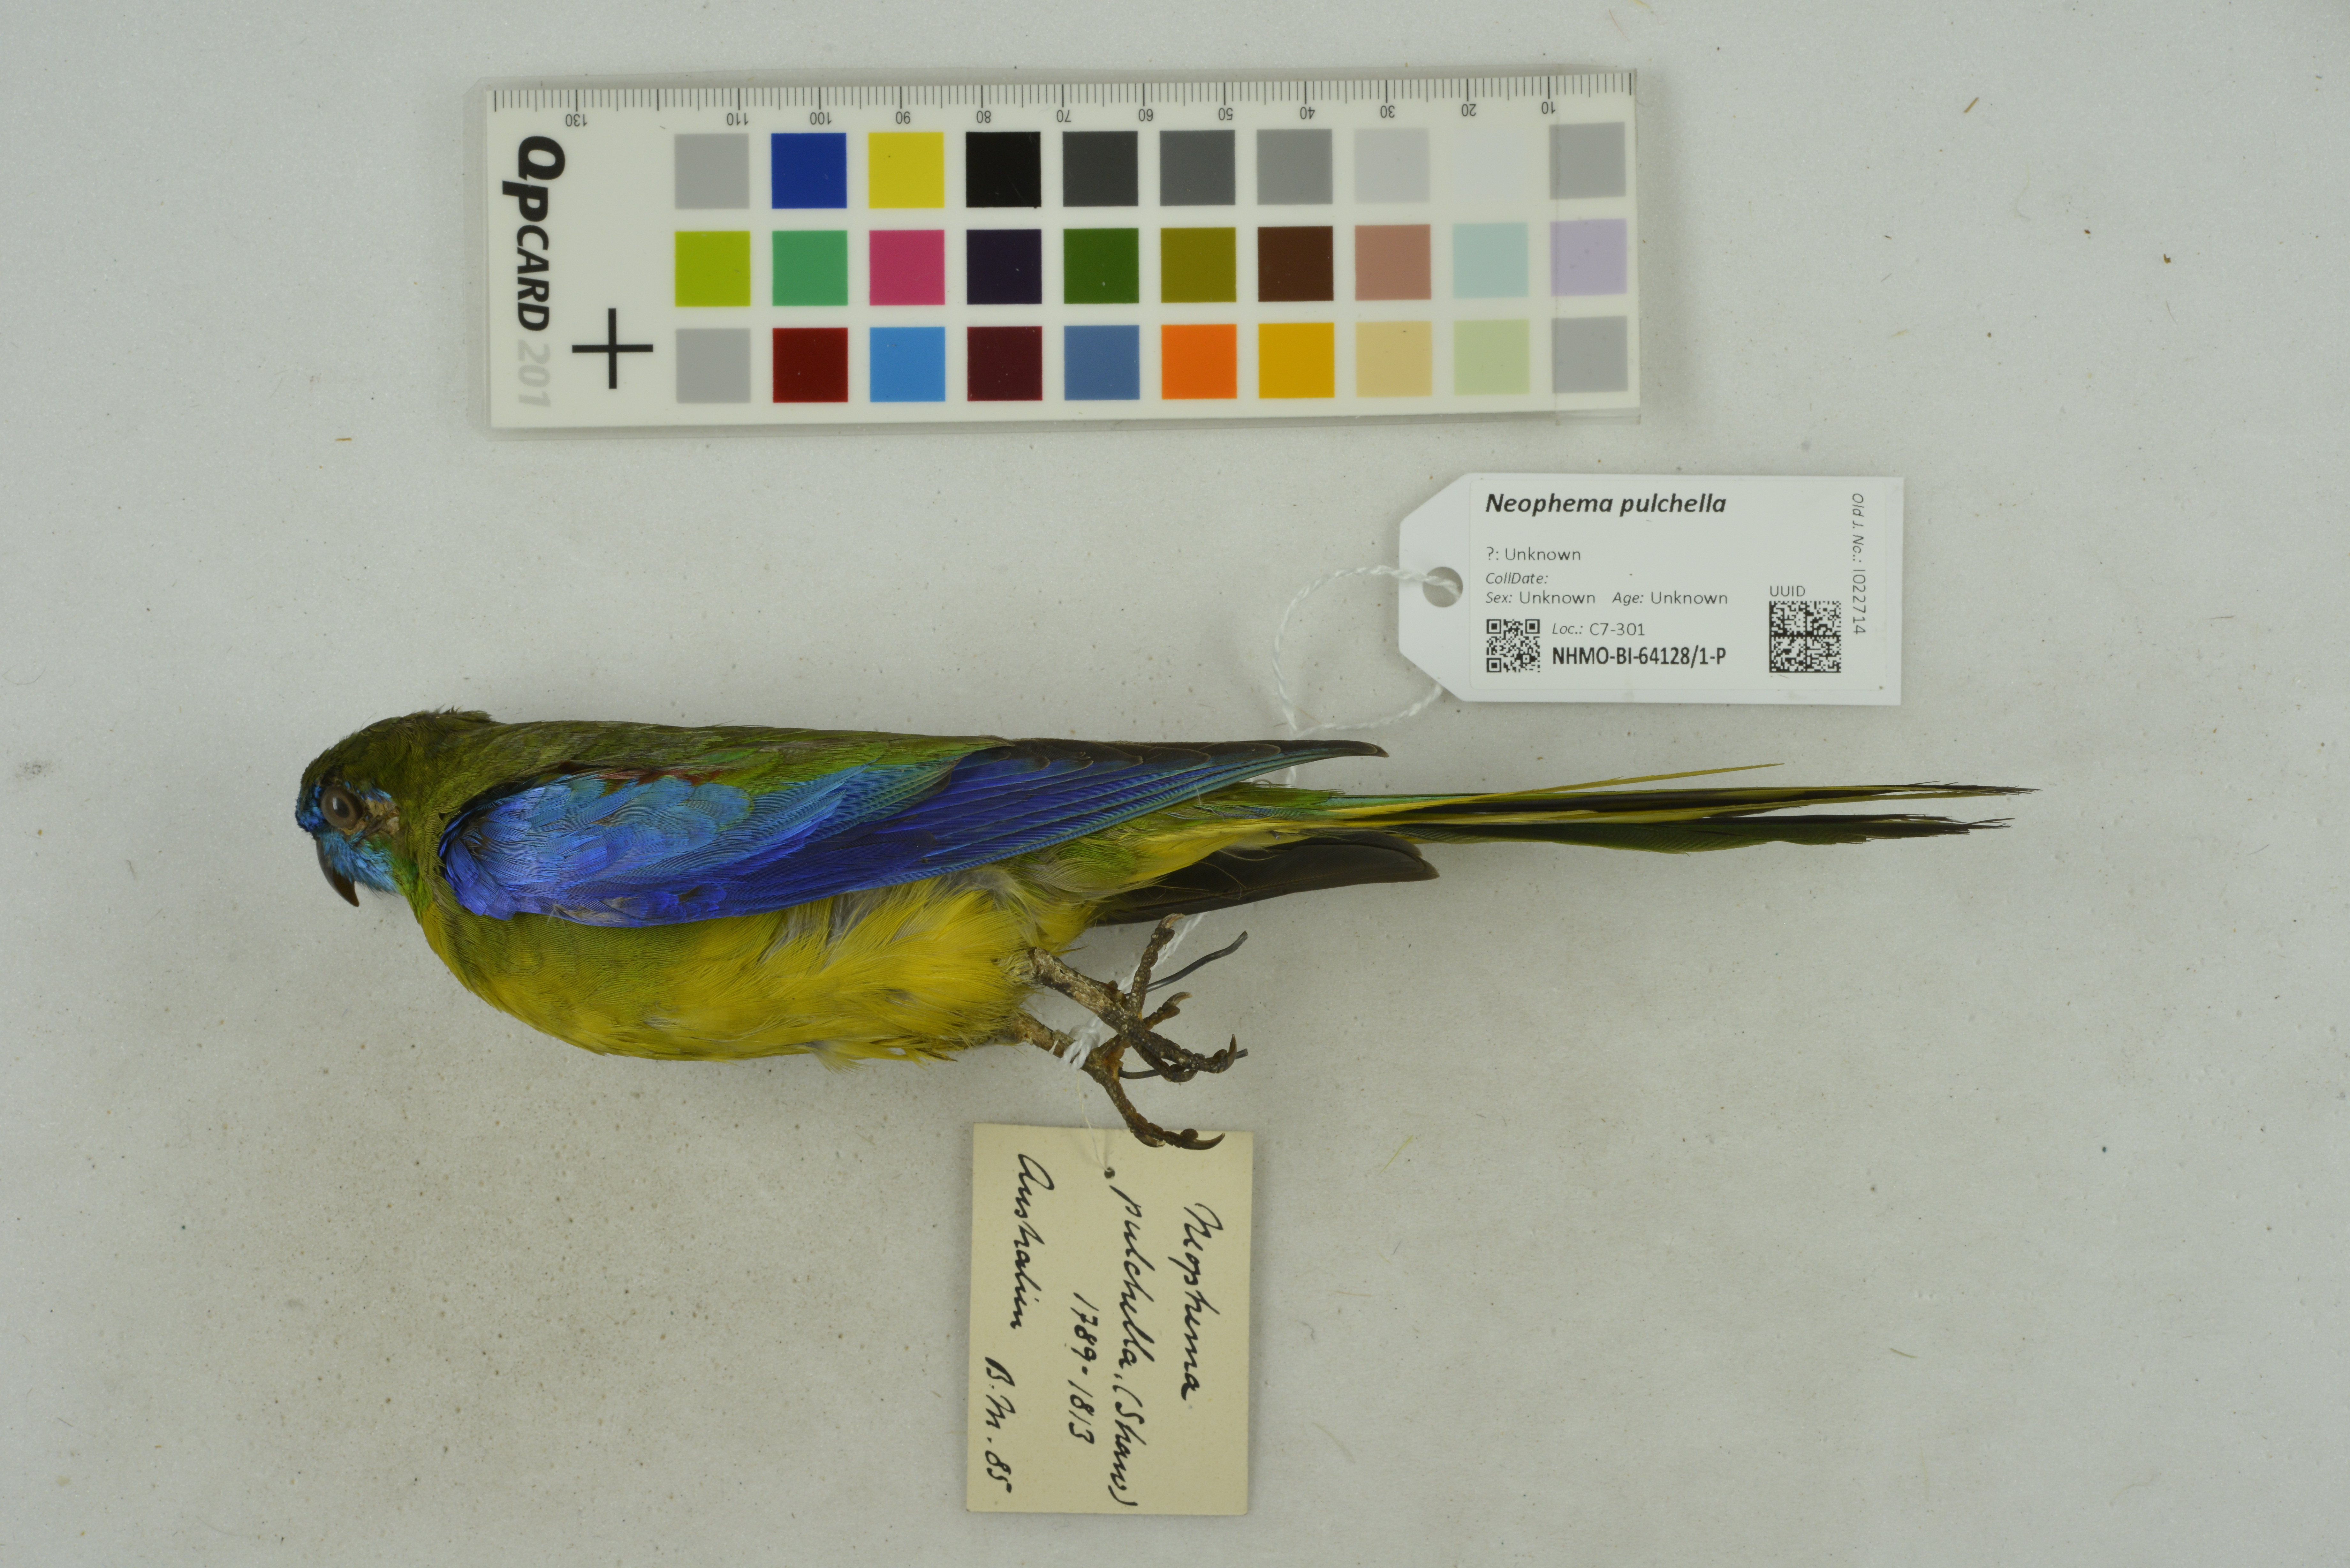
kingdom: Animalia
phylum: Chordata
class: Aves
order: Psittaciformes
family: Psittacidae
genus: Neophema
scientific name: Neophema pulchella
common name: Turquoise parrot
